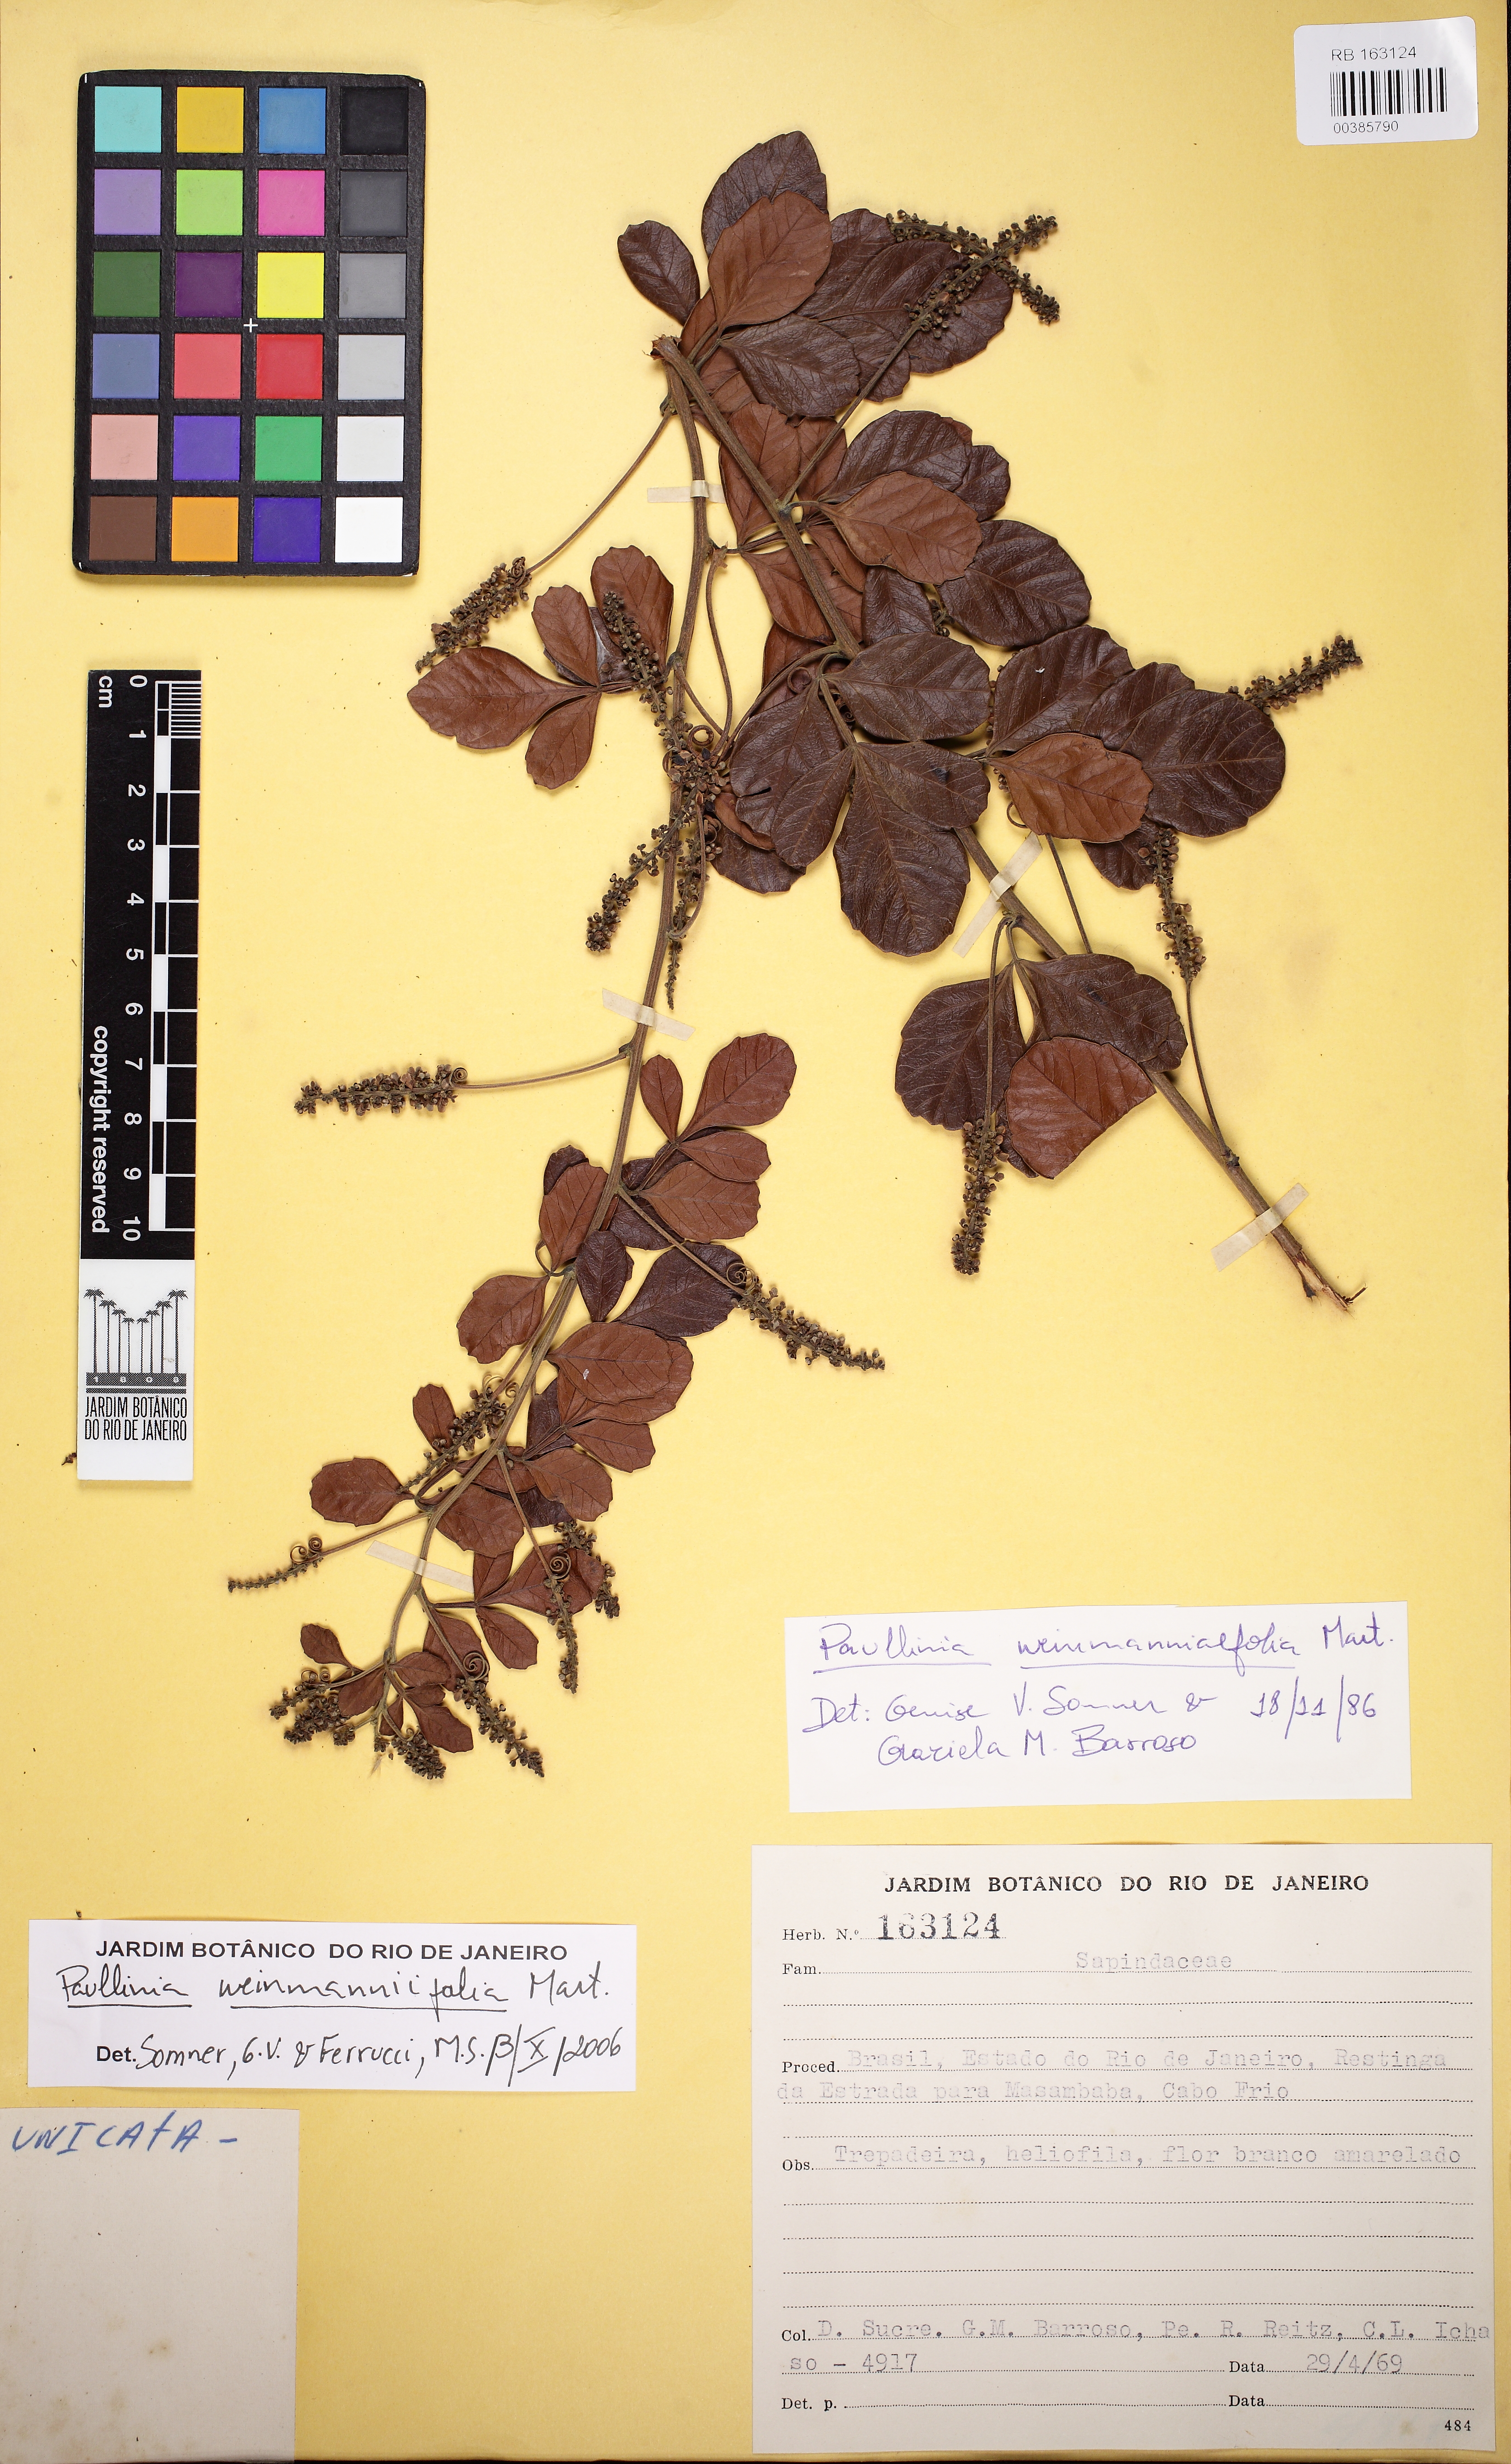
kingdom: Plantae
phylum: Tracheophyta
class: Magnoliopsida
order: Sapindales
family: Sapindaceae
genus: Paullinia
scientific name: Paullinia weinmanniifolia
